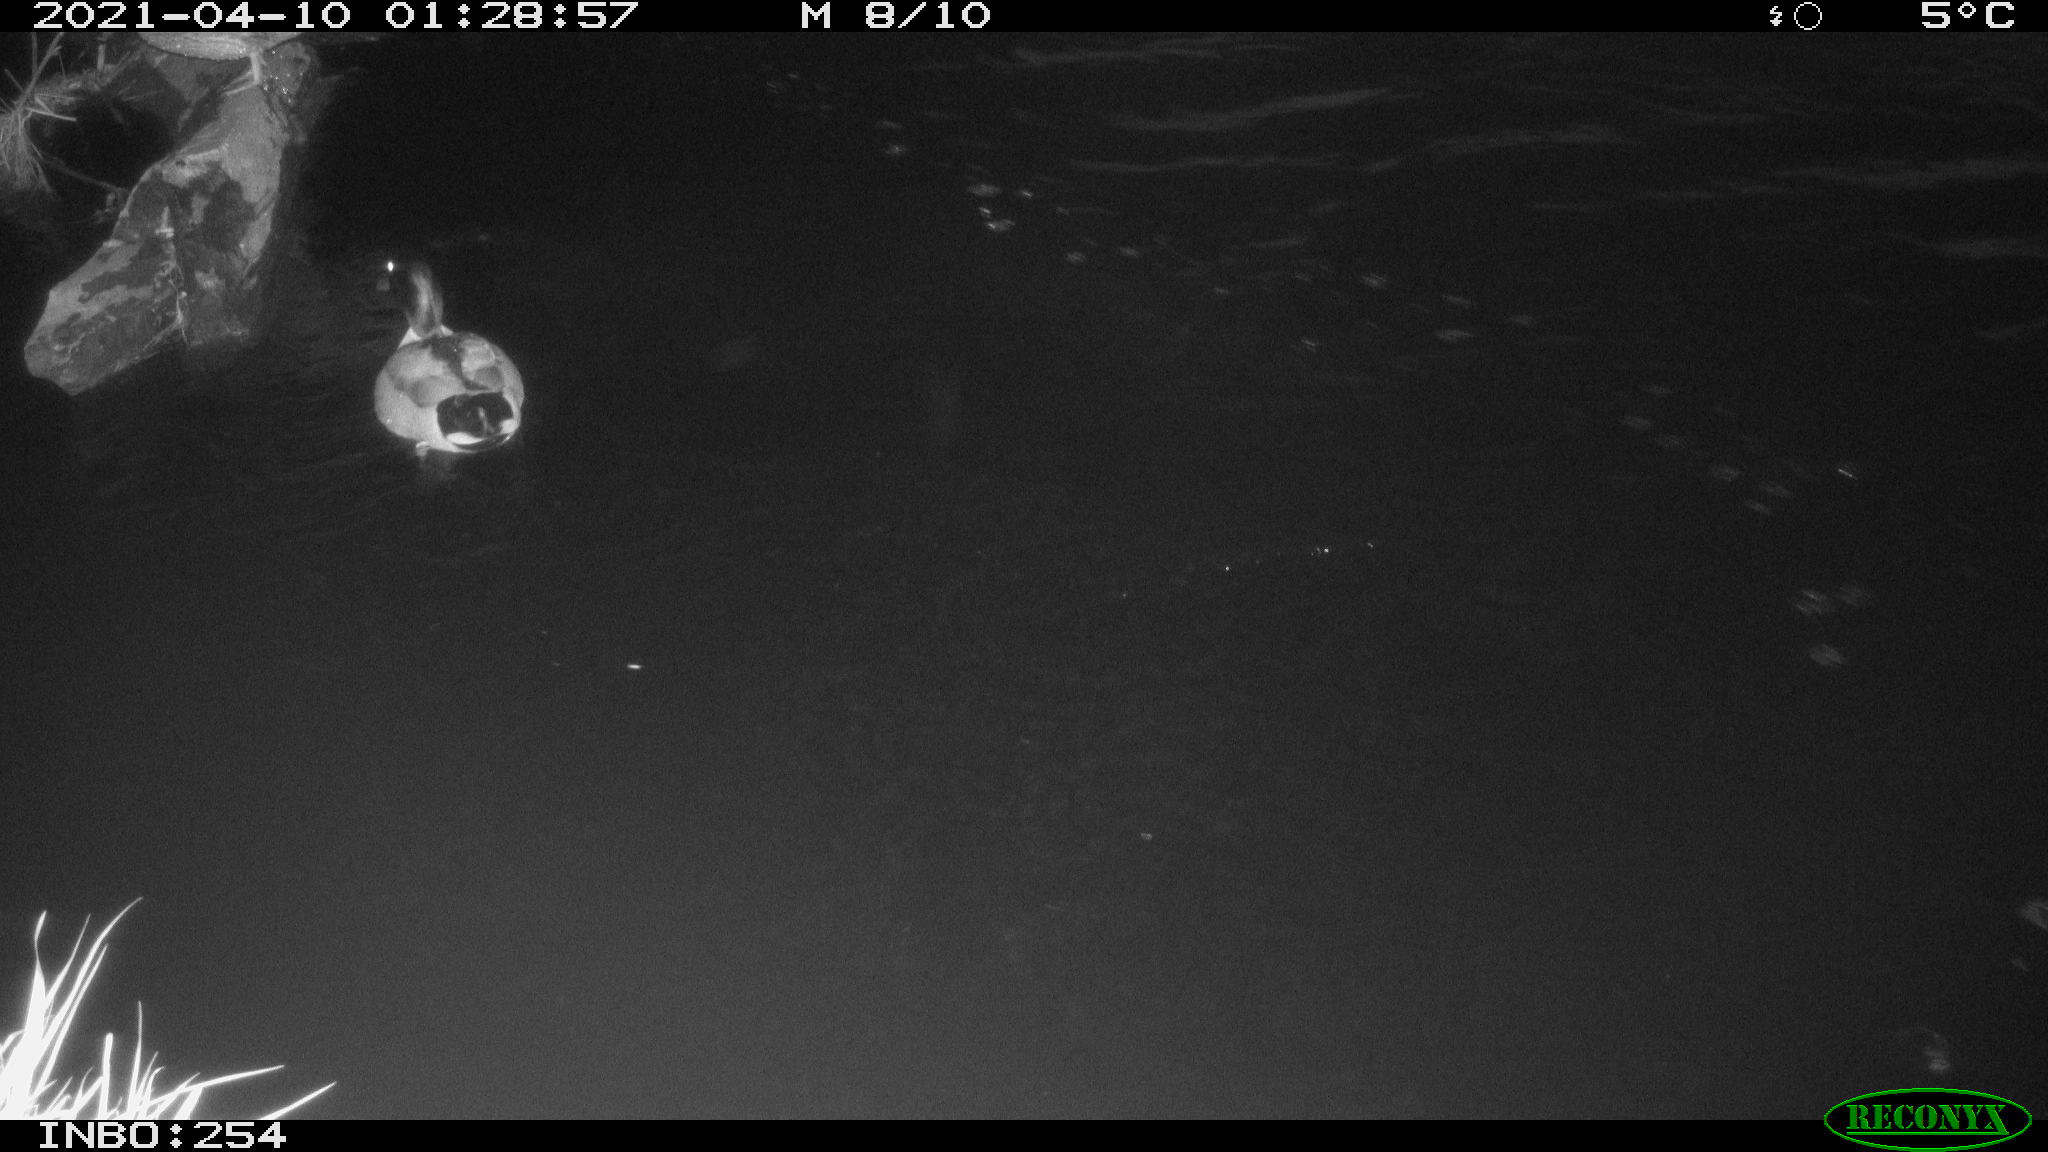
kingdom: Animalia
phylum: Chordata
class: Aves
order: Anseriformes
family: Anatidae
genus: Anas
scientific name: Anas
